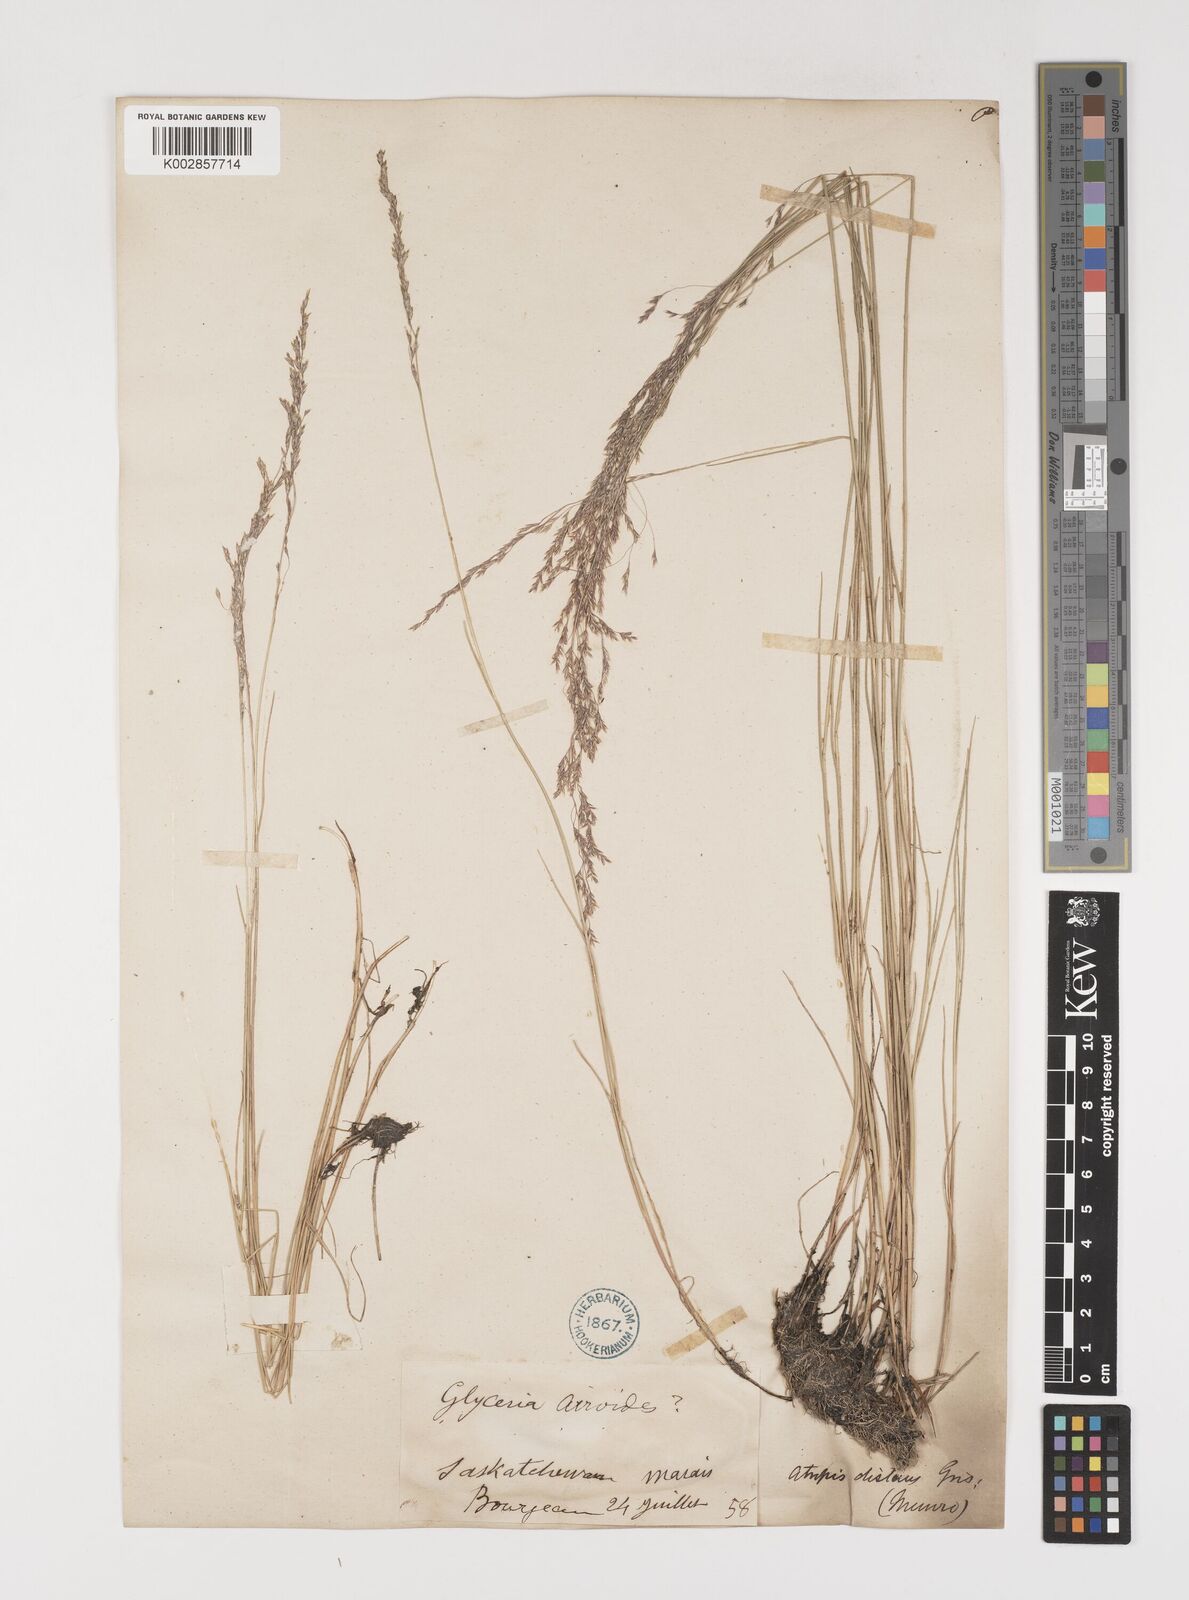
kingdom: Plantae
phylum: Tracheophyta
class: Liliopsida
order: Poales
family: Poaceae
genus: Puccinellia
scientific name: Puccinellia nuttalliana
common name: Nuttall's alkali grass
